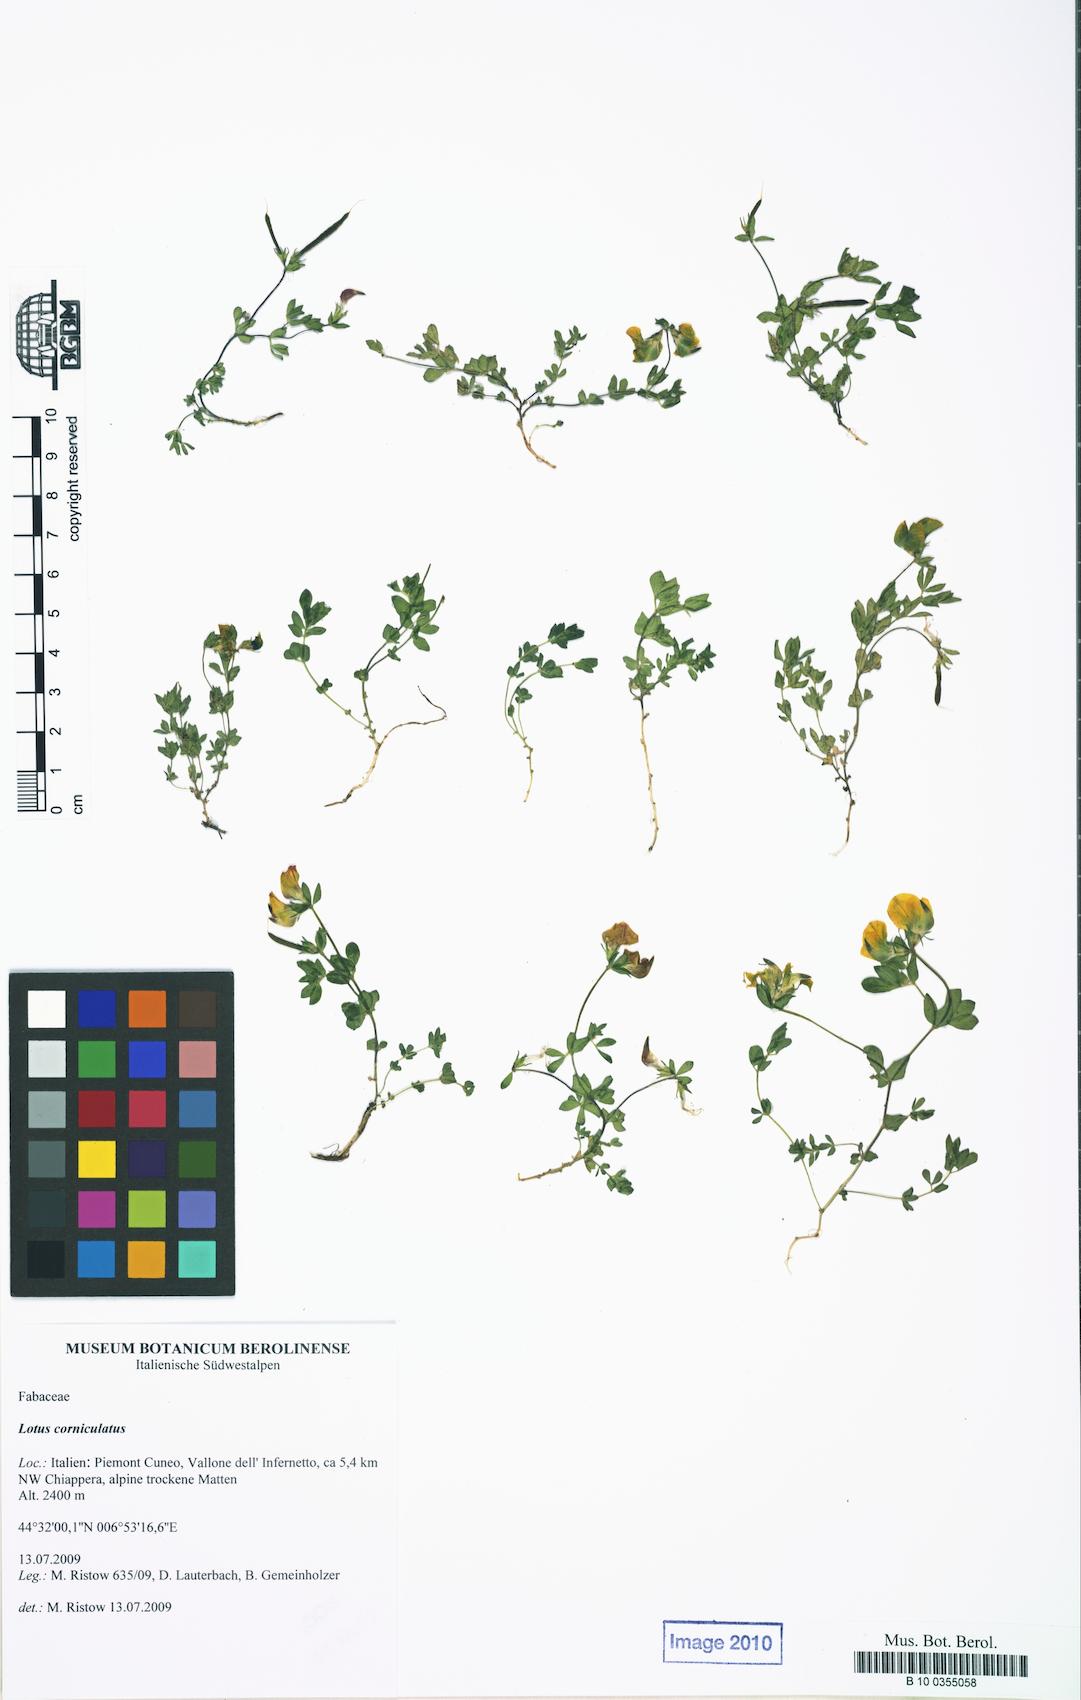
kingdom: Plantae
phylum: Tracheophyta
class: Magnoliopsida
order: Fabales
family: Fabaceae
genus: Lotus
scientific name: Lotus corniculatus
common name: Common bird's-foot-trefoil
